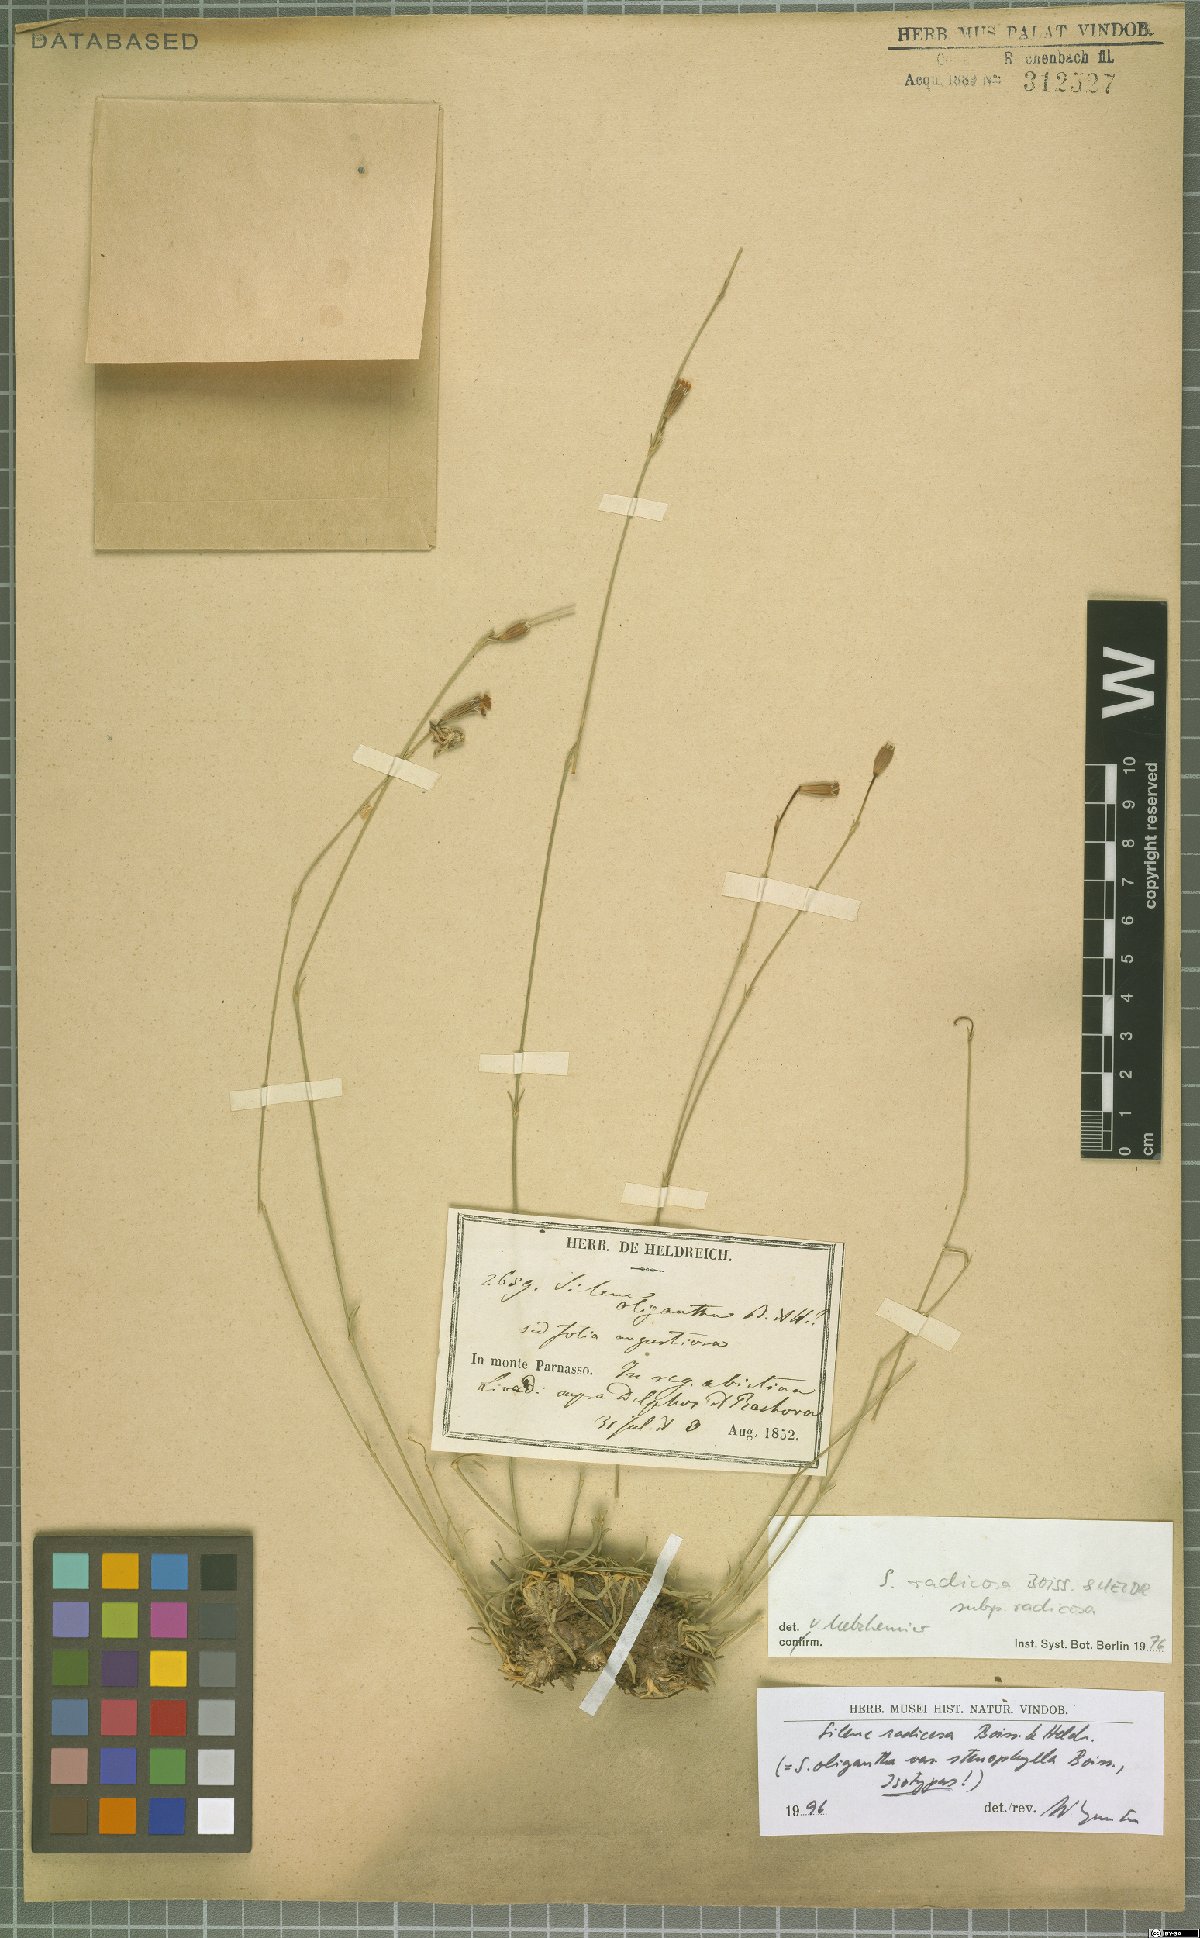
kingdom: Plantae
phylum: Tracheophyta
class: Magnoliopsida
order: Caryophyllales
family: Caryophyllaceae
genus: Silene
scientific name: Silene radicosa
